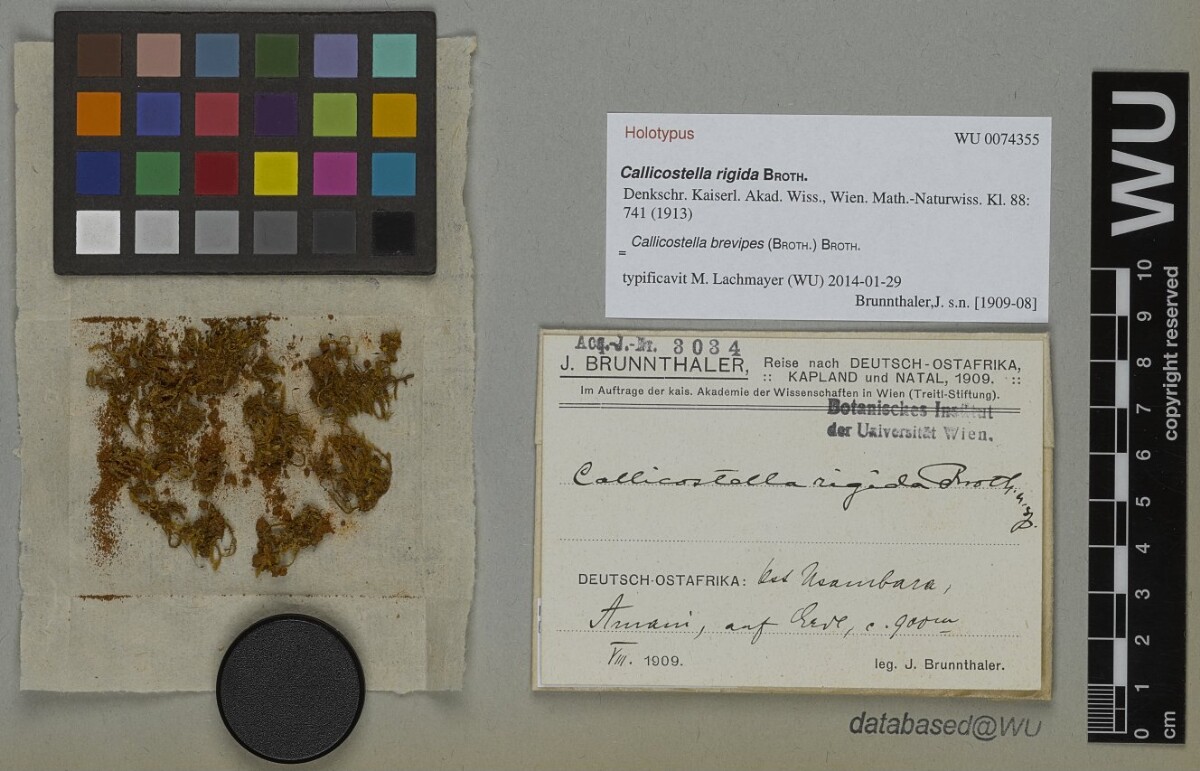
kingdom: Plantae
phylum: Bryophyta
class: Bryopsida
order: Hookeriales
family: Pilotrichaceae
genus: Callicostella
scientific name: Callicostella brevipes
